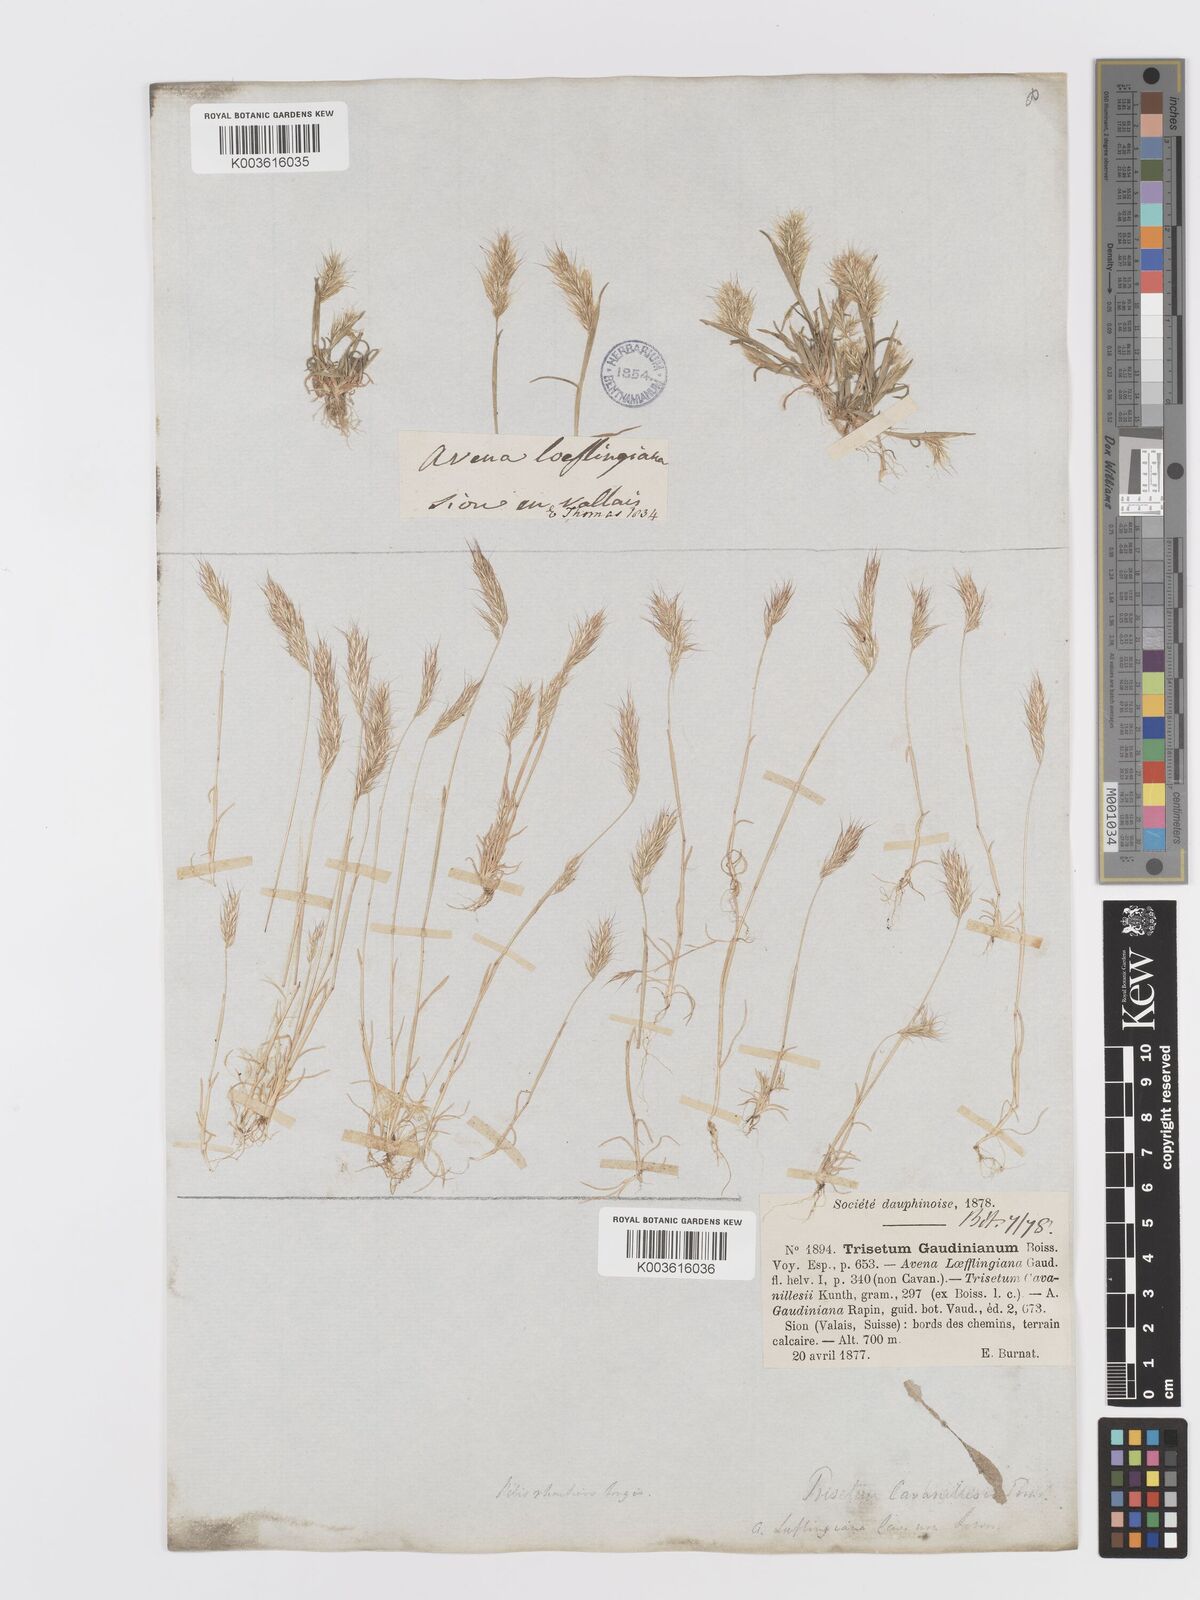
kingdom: Plantae
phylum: Tracheophyta
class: Liliopsida
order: Poales
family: Poaceae
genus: Trisetaria
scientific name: Trisetaria loeflingiana
